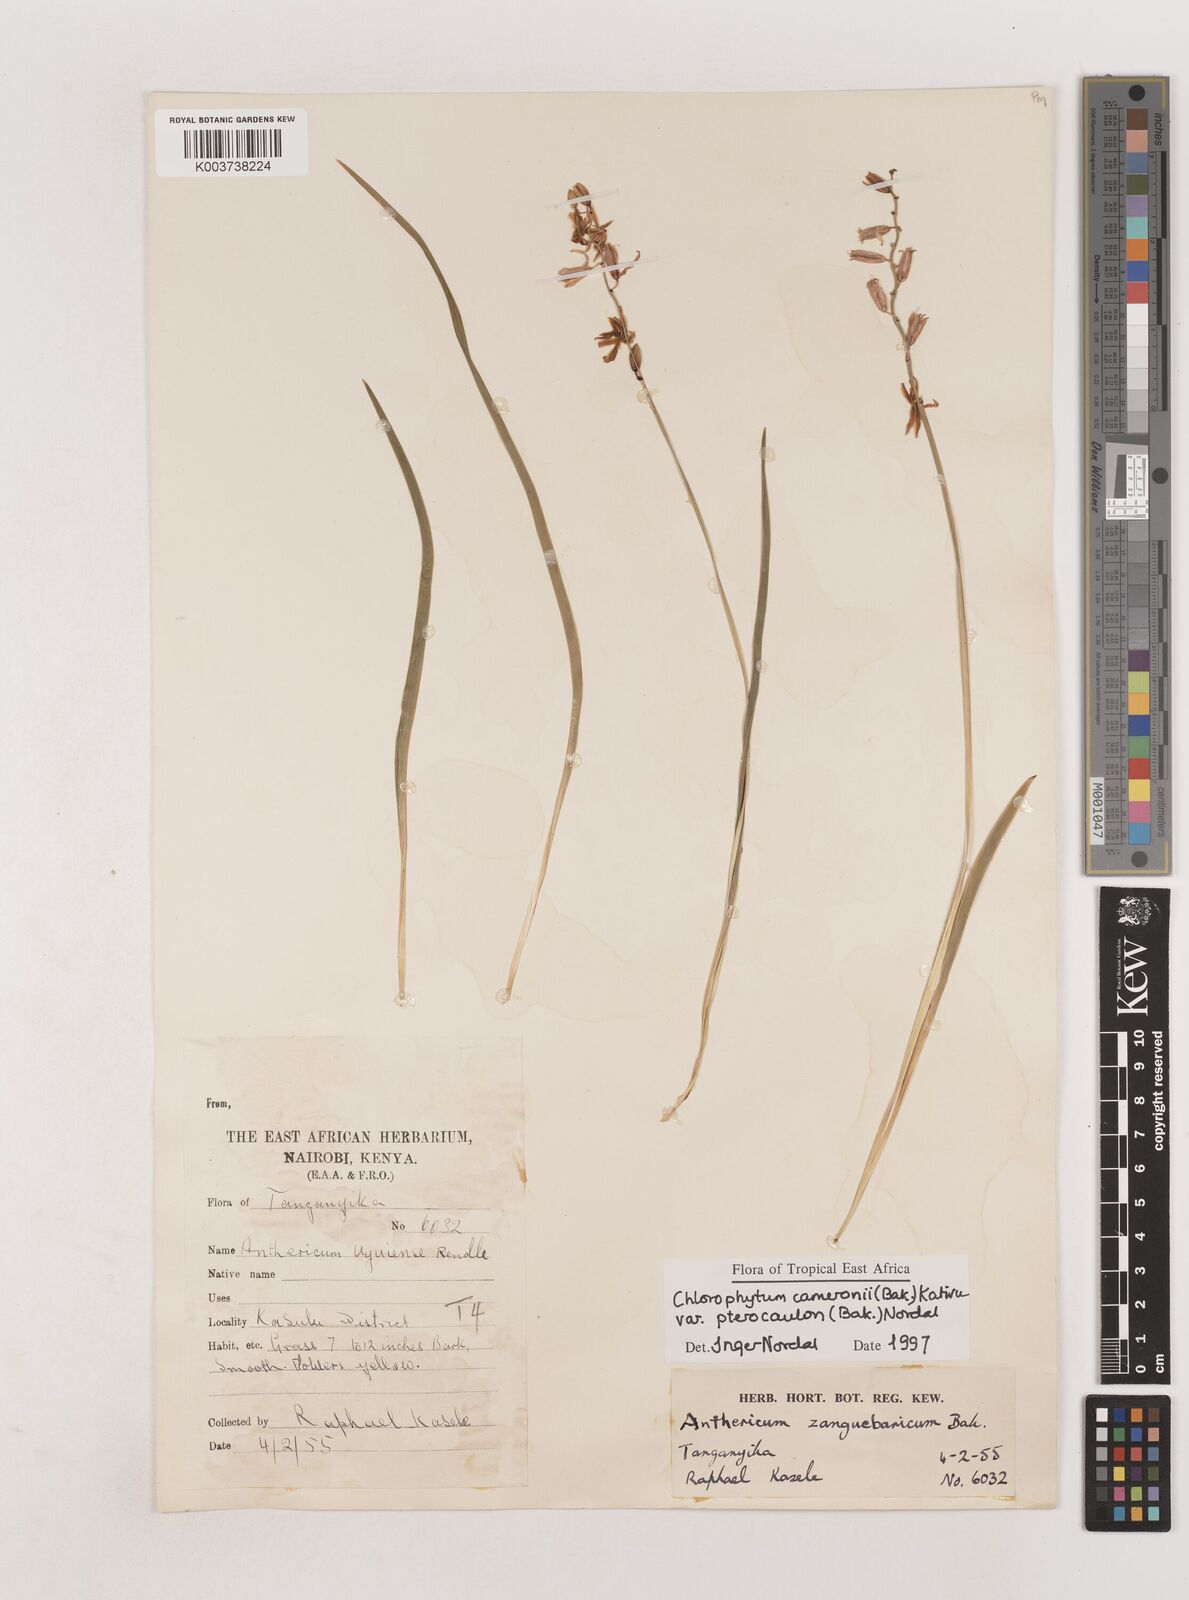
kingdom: Plantae
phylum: Tracheophyta
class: Liliopsida
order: Asparagales
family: Asparagaceae
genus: Chlorophytum
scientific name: Chlorophytum cameronii
